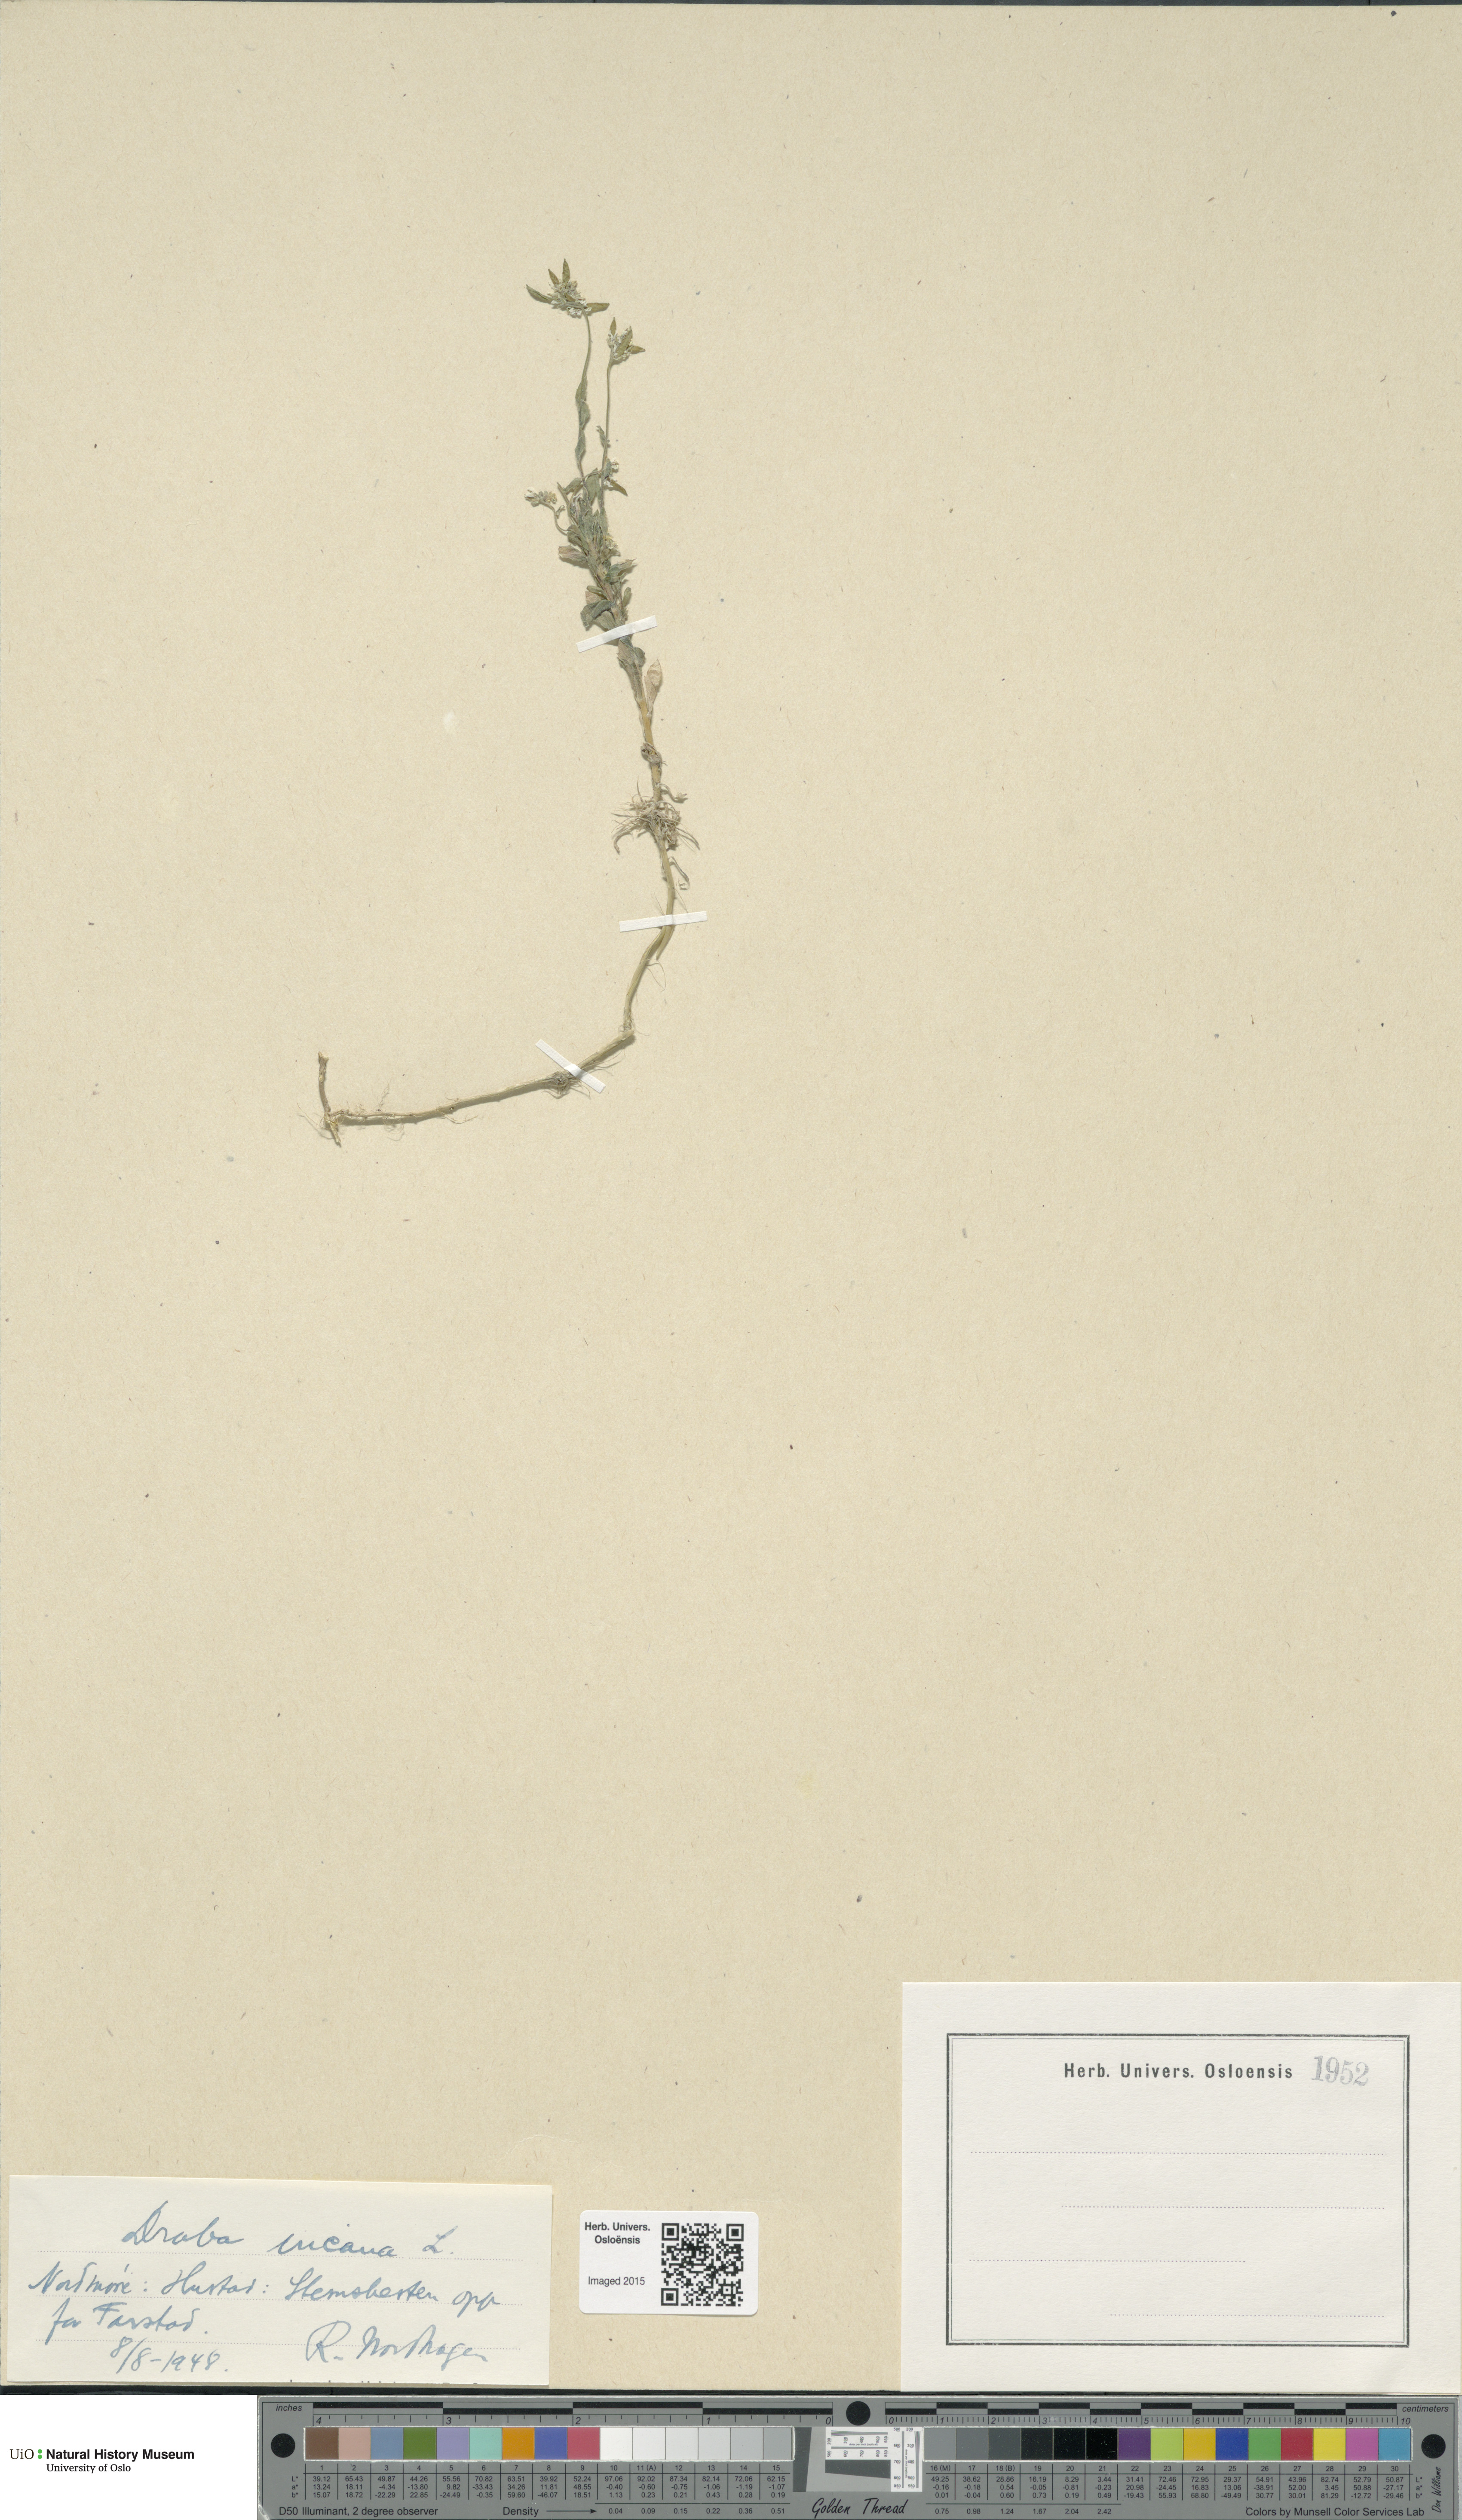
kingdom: Plantae
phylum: Tracheophyta
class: Magnoliopsida
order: Brassicales
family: Brassicaceae
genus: Draba
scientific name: Draba incana
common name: Hoary whitlow-grass
